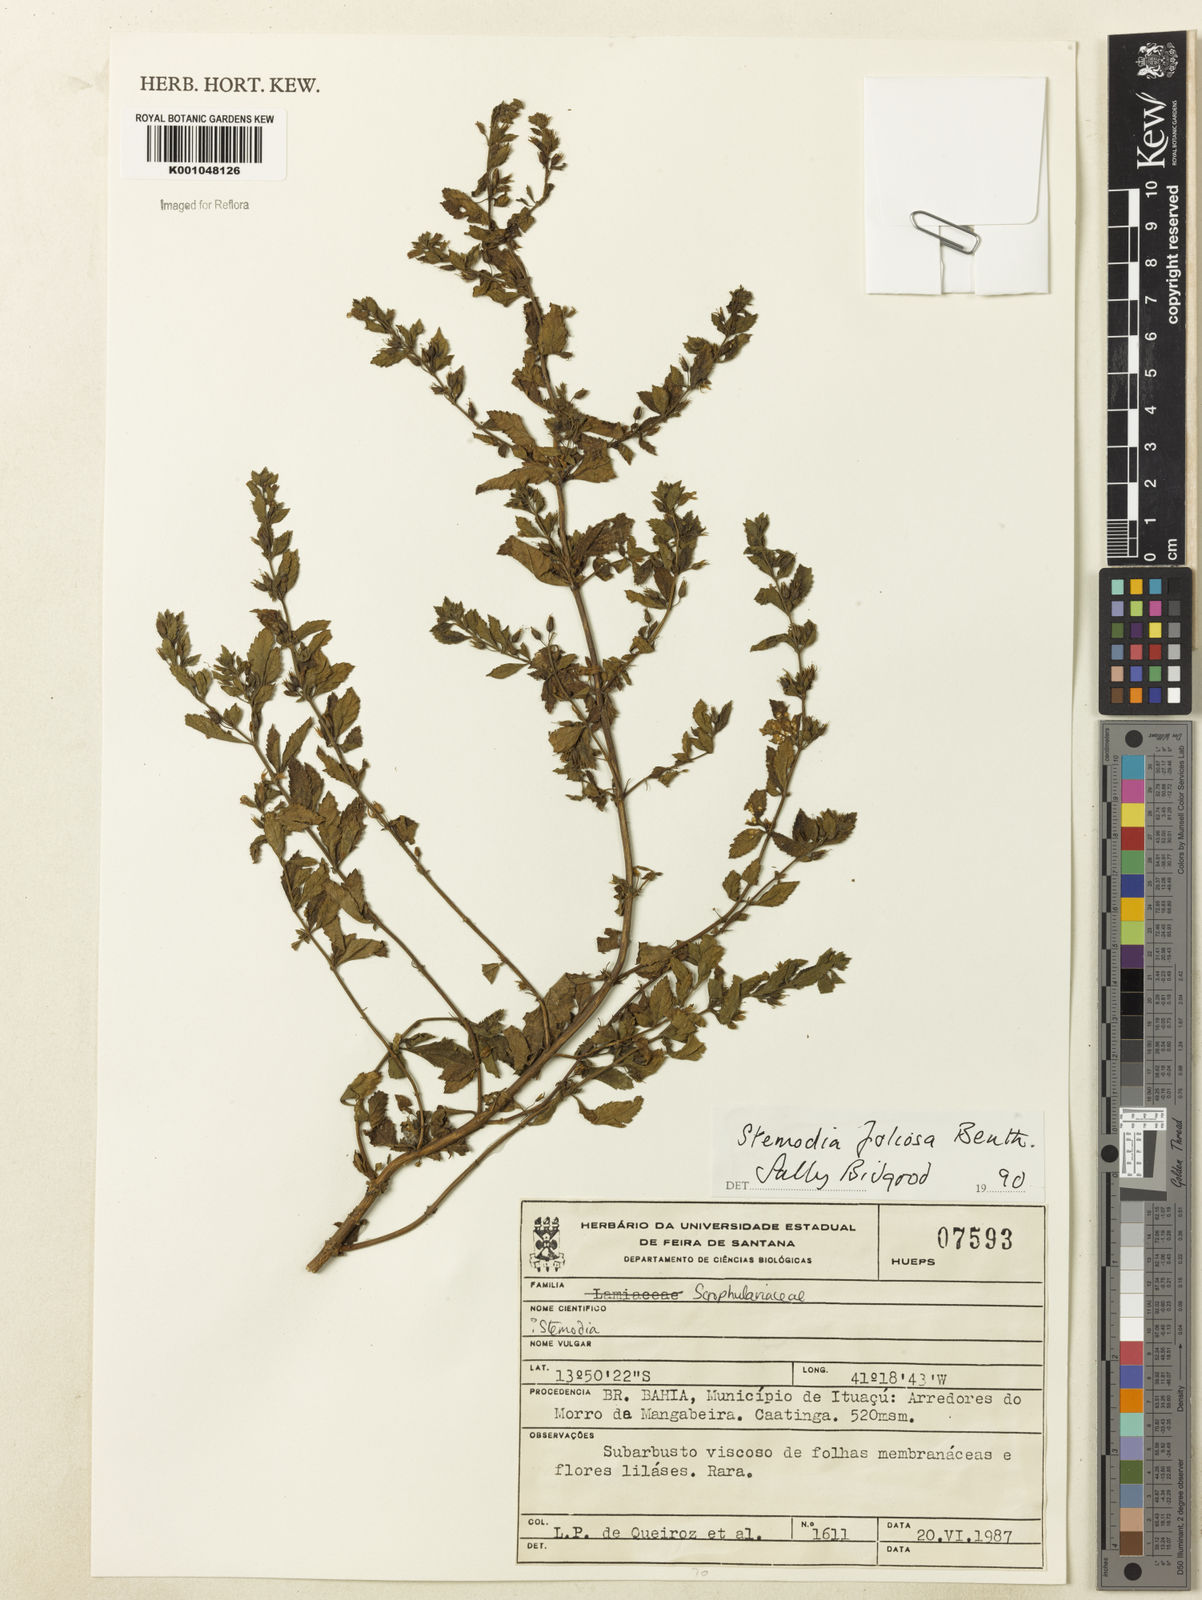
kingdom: Plantae
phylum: Tracheophyta
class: Magnoliopsida
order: Lamiales
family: Plantaginaceae
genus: Stemodia
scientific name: Stemodia foliosa
